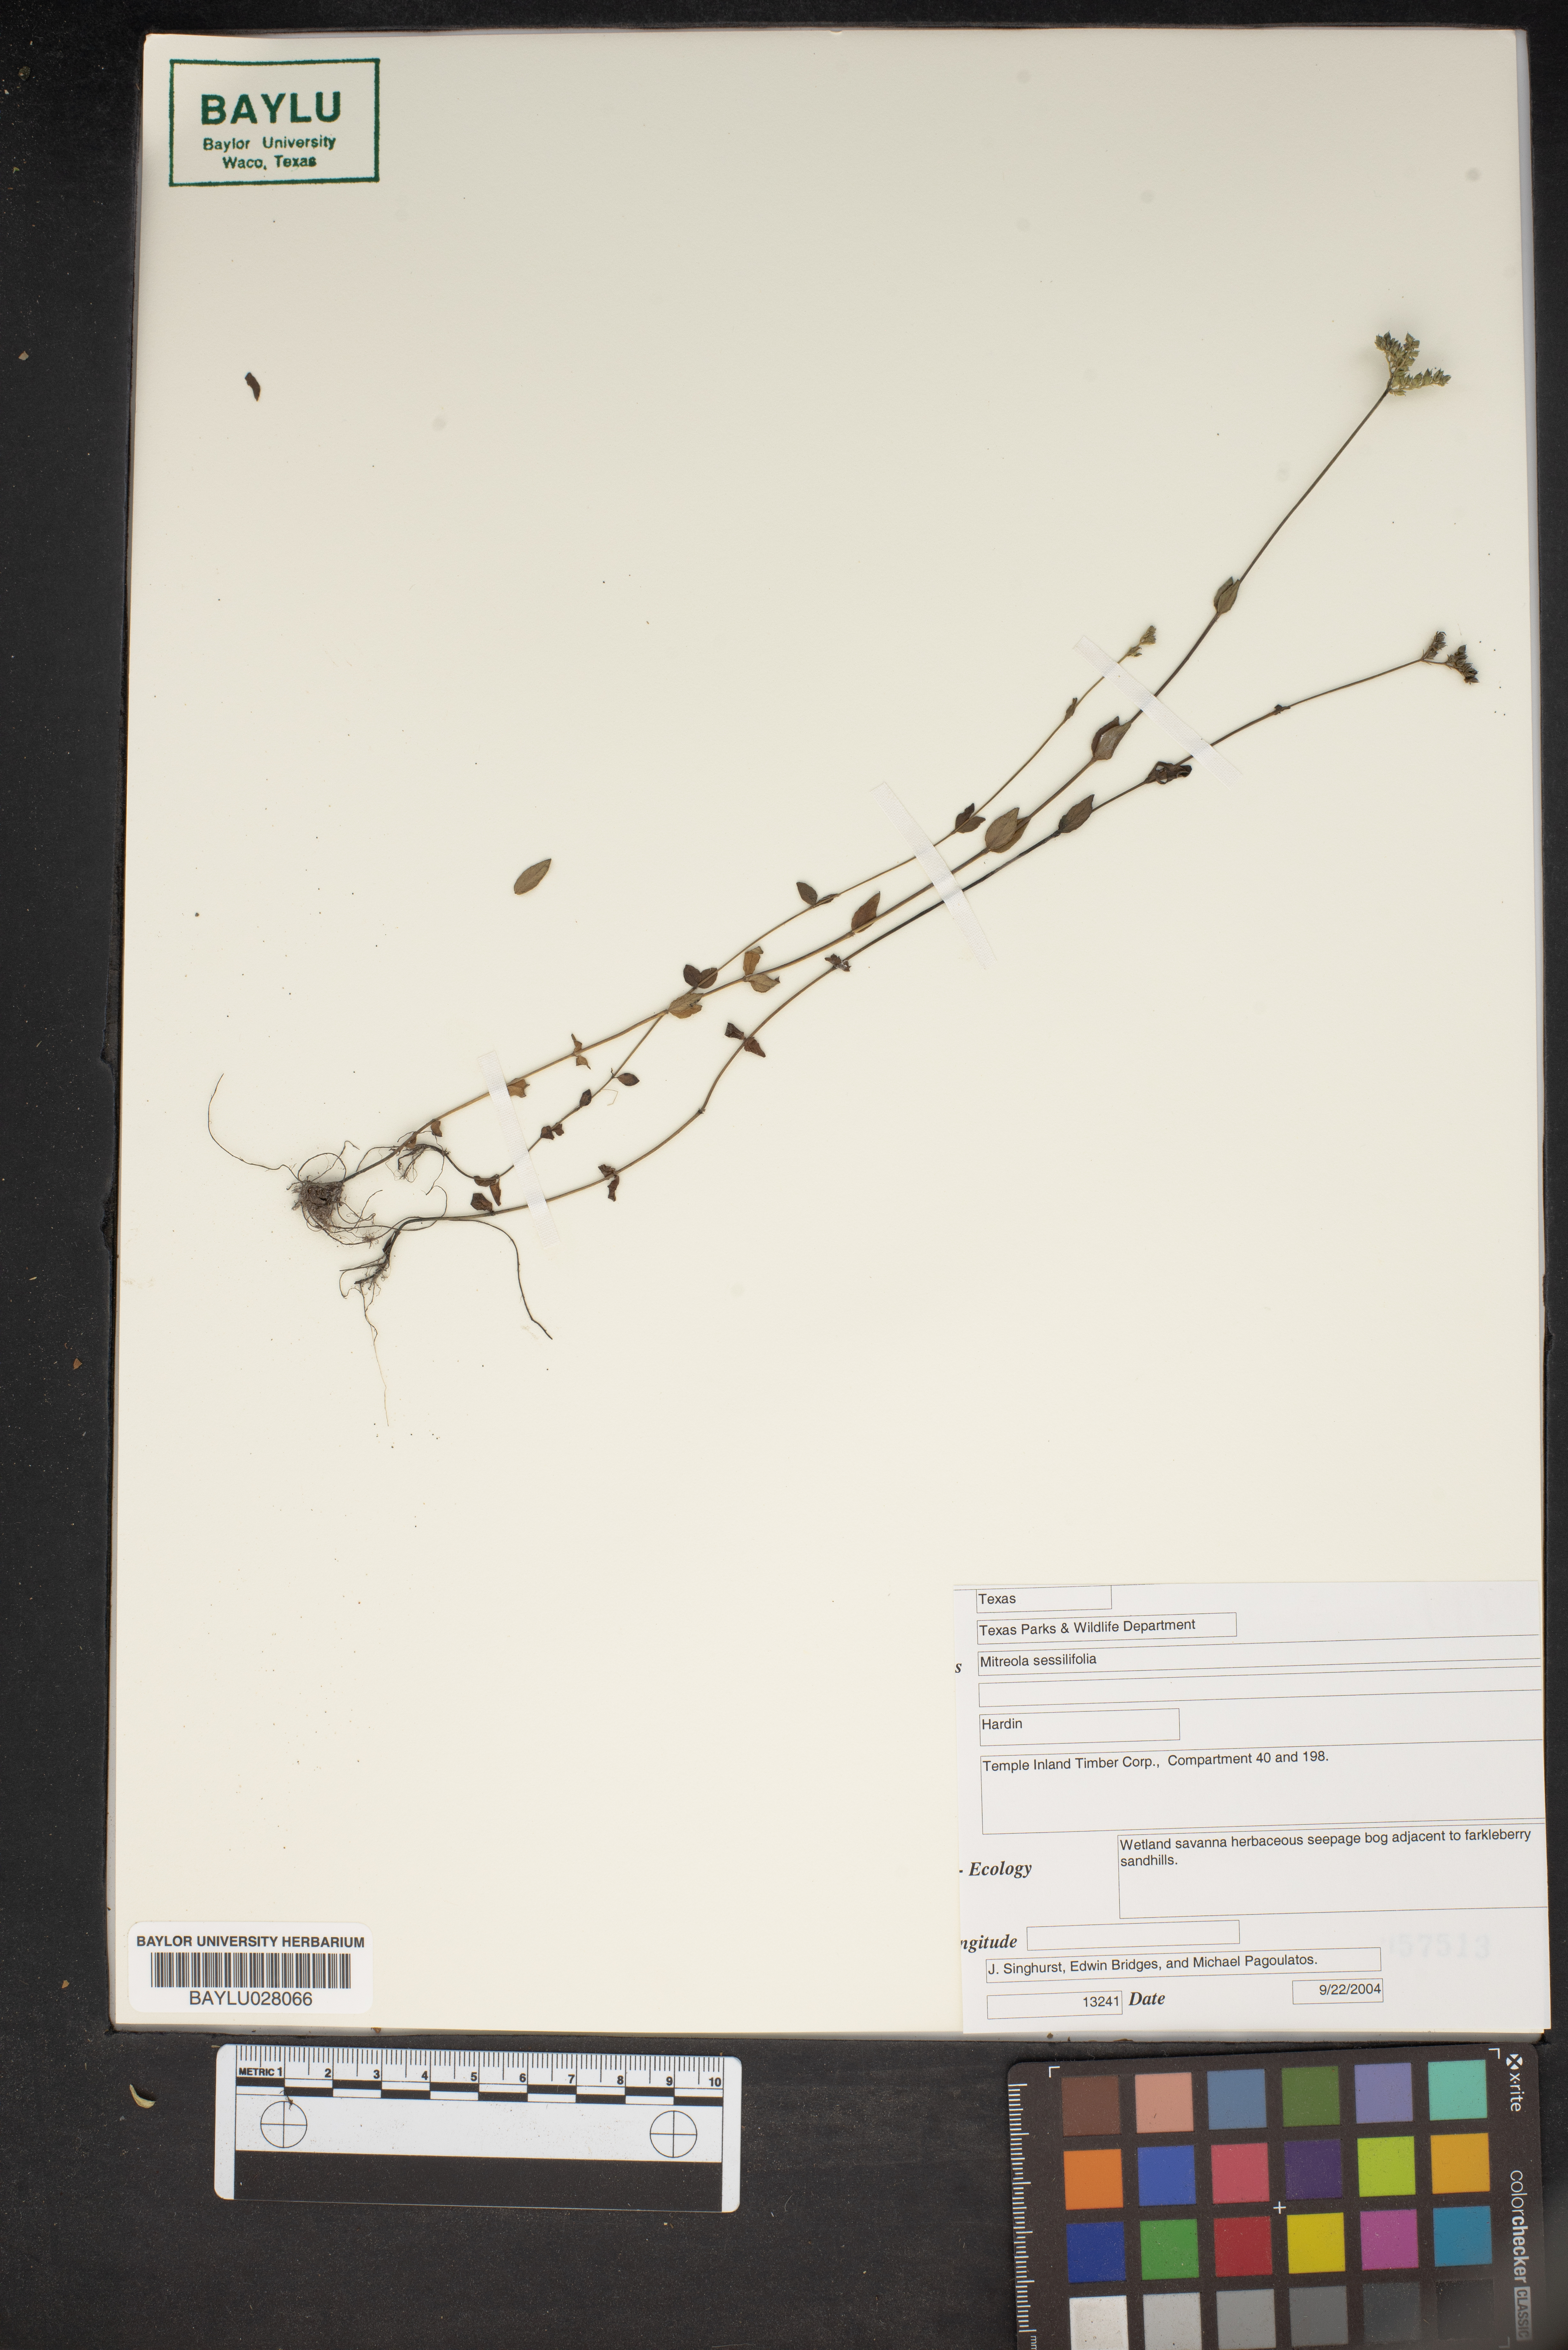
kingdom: Plantae
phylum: Tracheophyta
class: Magnoliopsida
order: Gentianales
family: Loganiaceae
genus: Mitreola
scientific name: Mitreola sessilifolia
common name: Swamp hornpod
